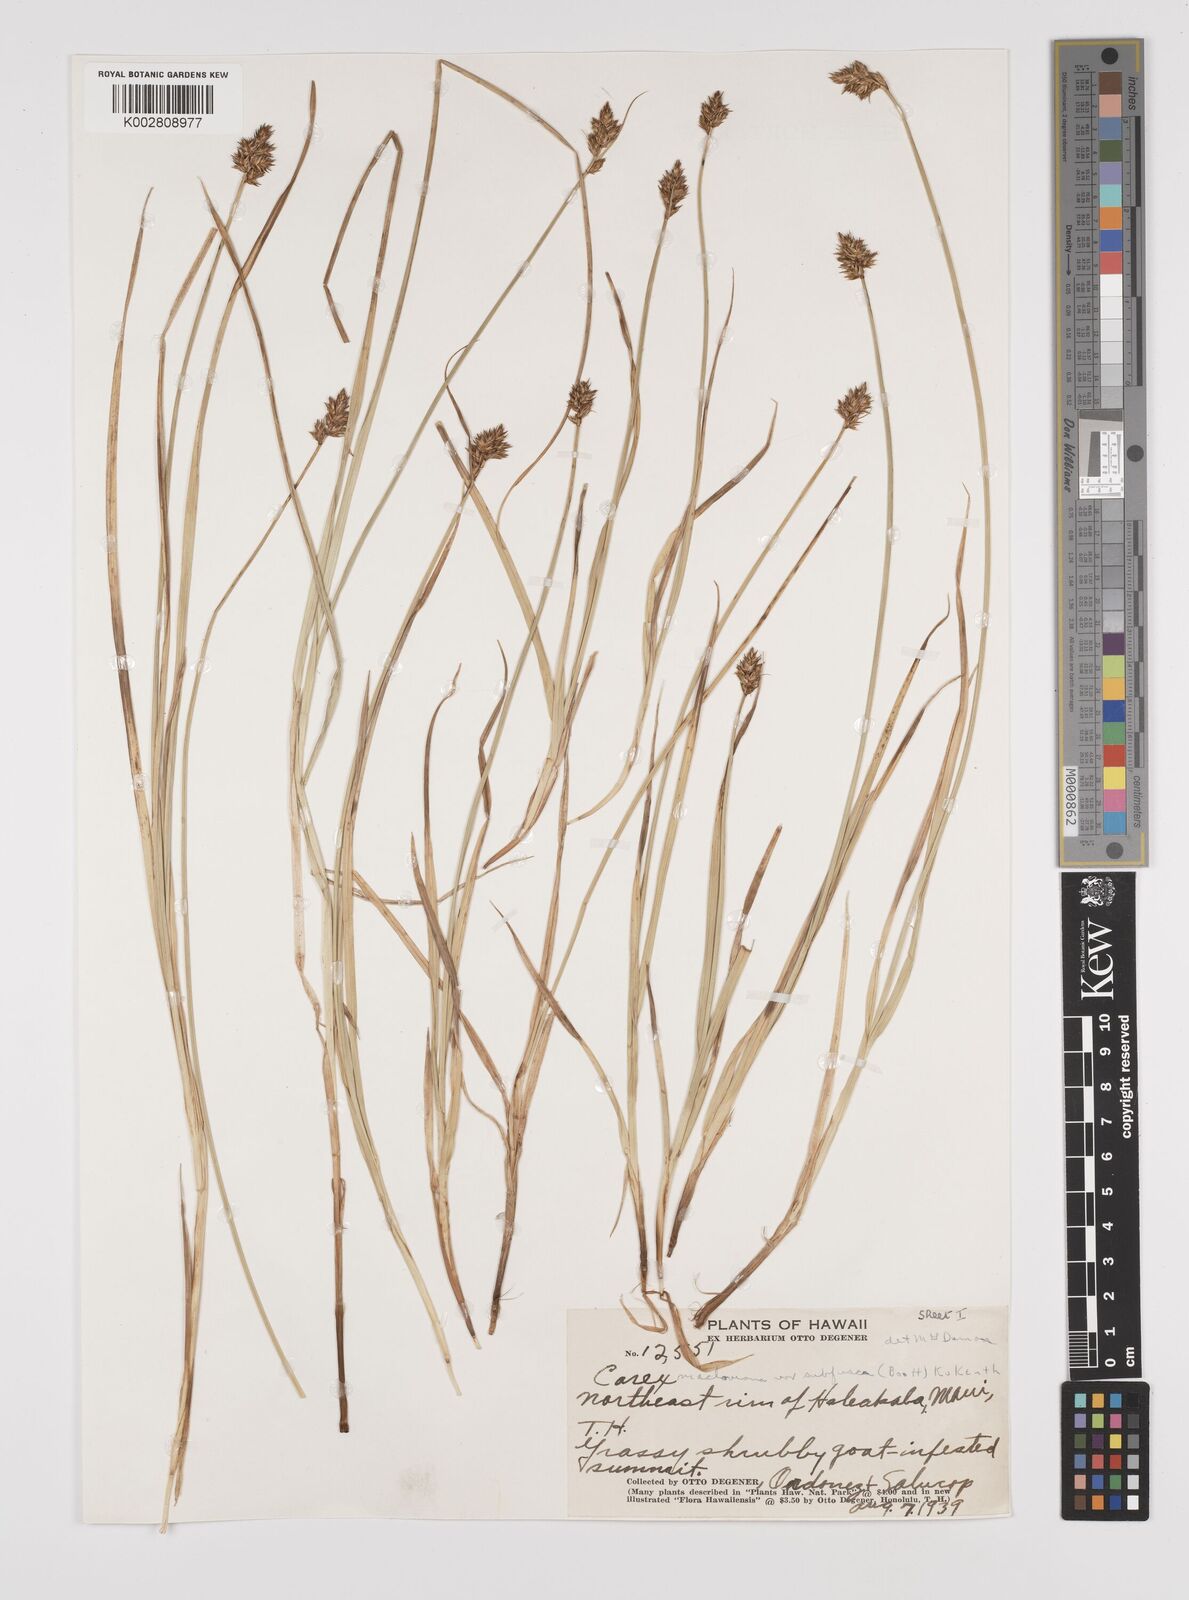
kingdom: Plantae
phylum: Tracheophyta
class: Liliopsida
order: Poales
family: Cyperaceae
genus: Carex
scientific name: Carex subfusca
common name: Brown sedge
